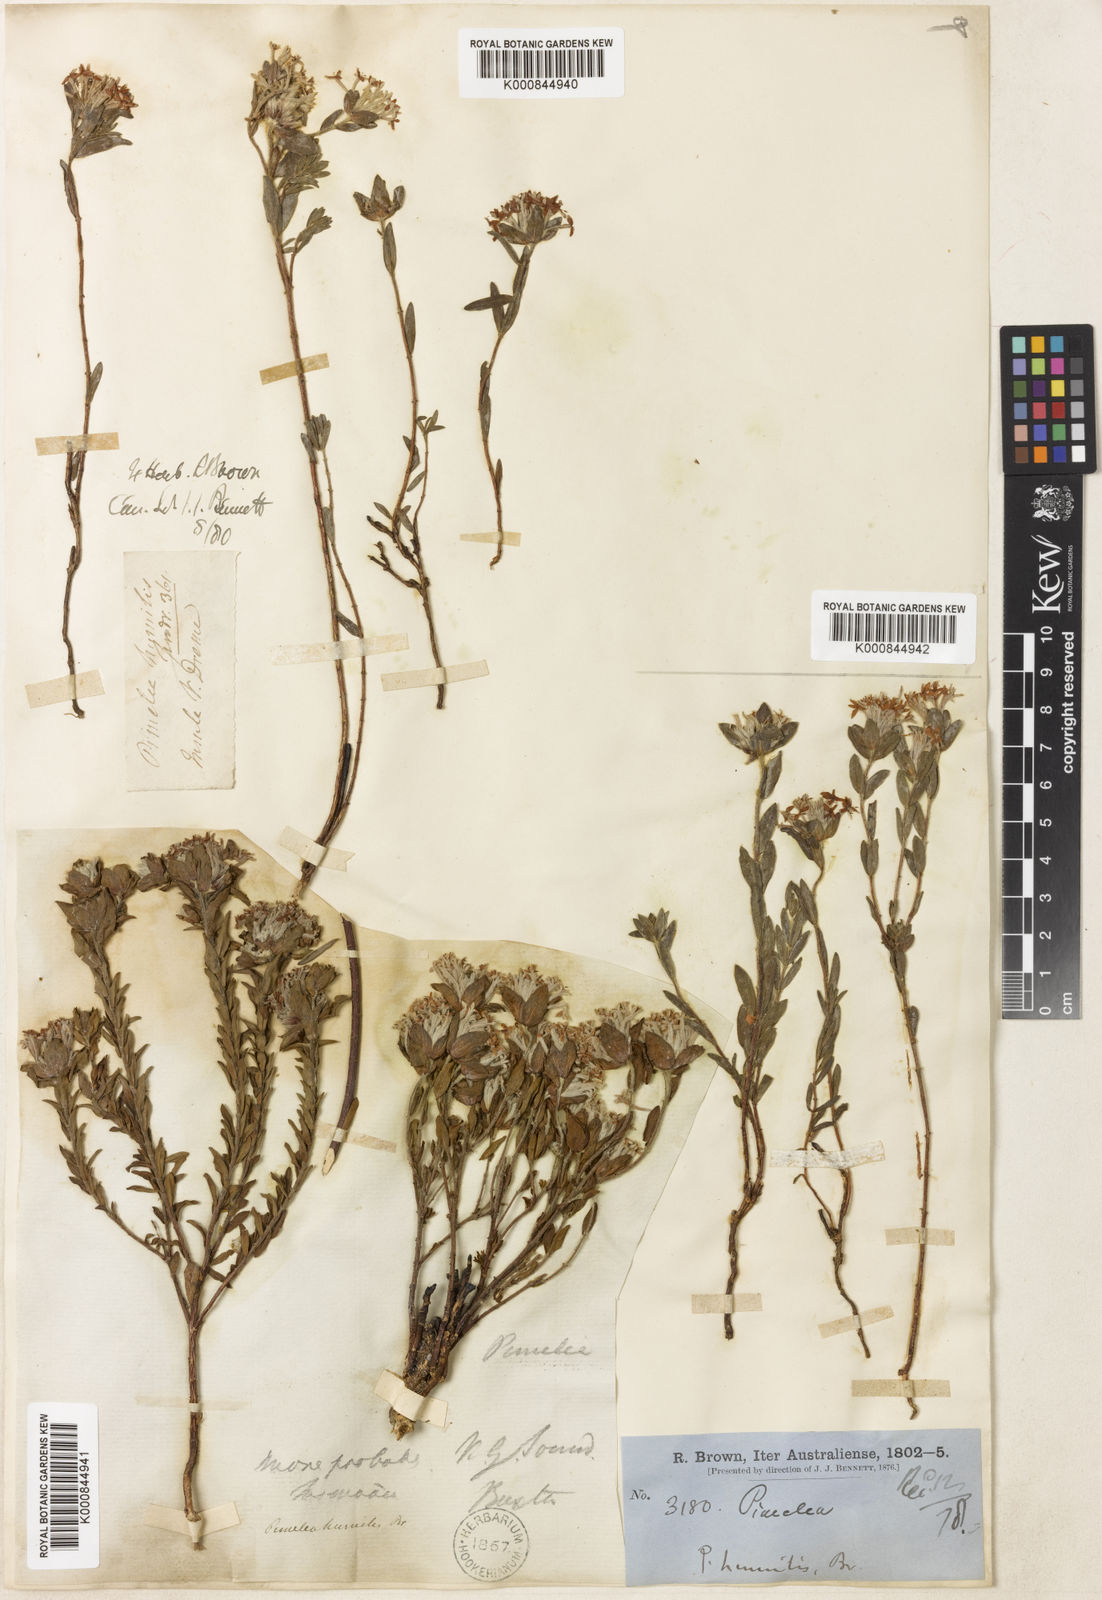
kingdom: Plantae
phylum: Tracheophyta
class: Magnoliopsida
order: Malvales
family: Thymelaeaceae
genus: Pimelea
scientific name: Pimelea humilis
